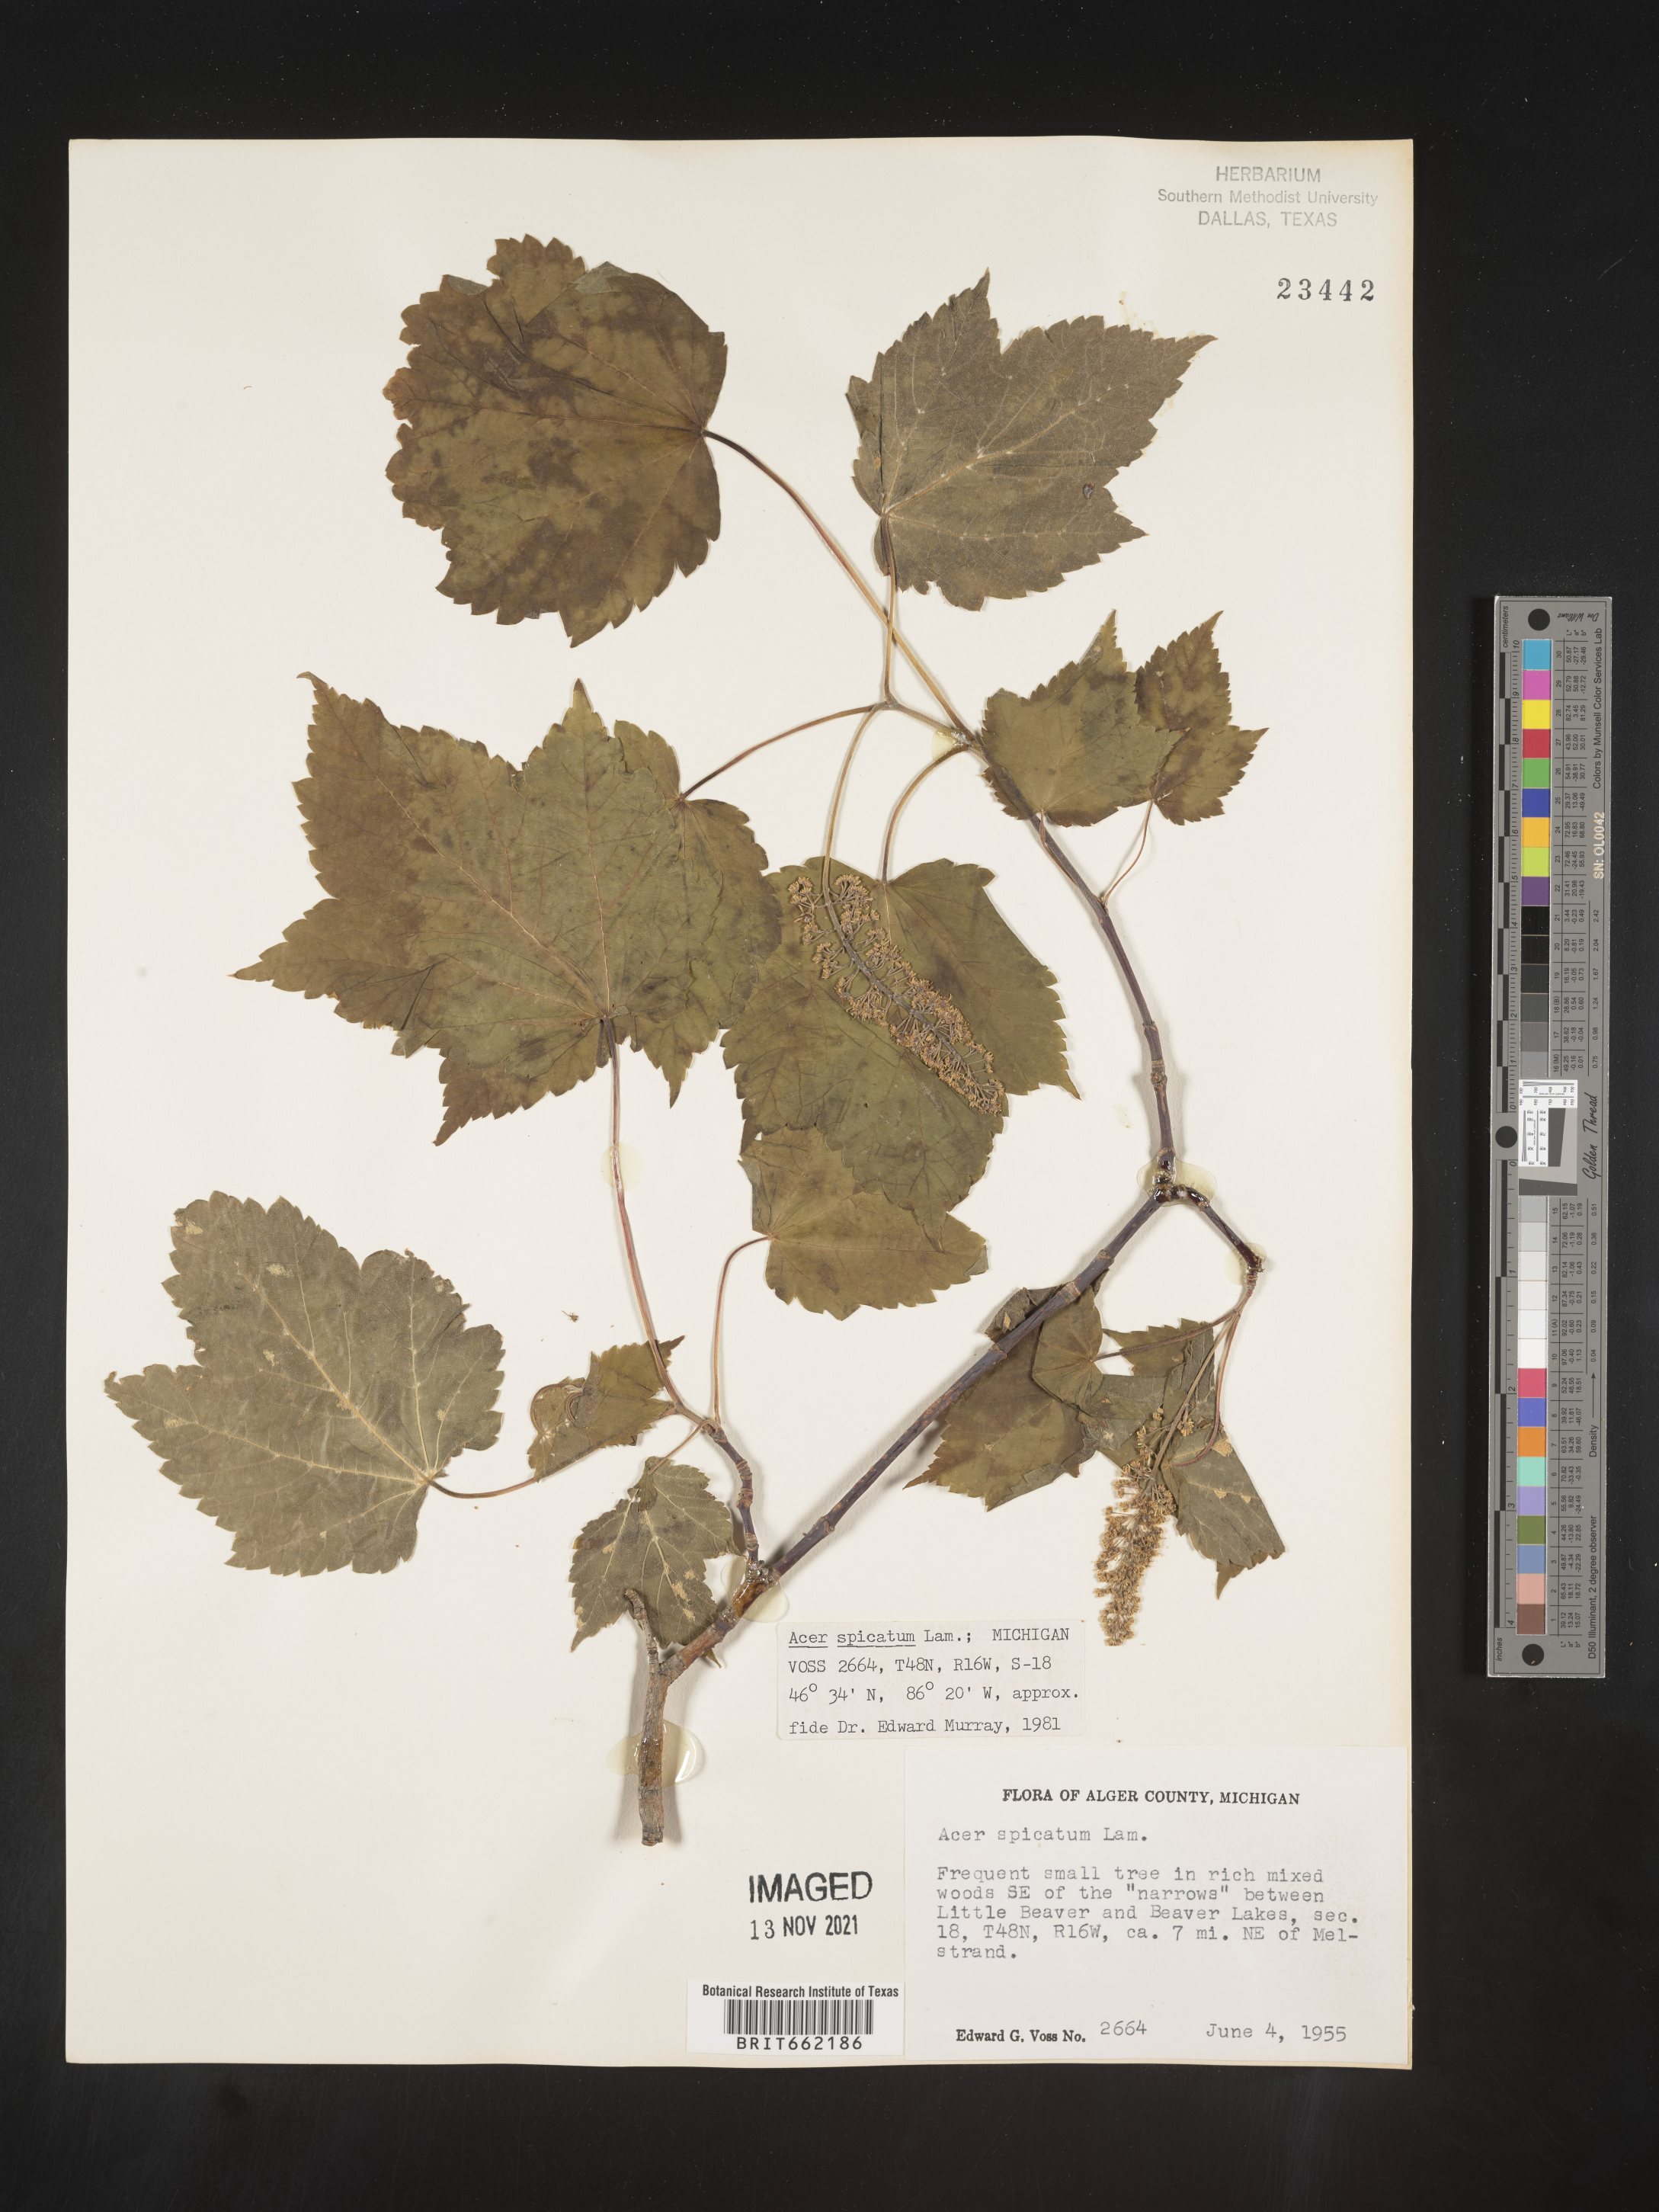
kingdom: Plantae
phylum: Tracheophyta
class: Magnoliopsida
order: Sapindales
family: Sapindaceae
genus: Acer
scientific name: Acer spicatum
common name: Mountain maple
